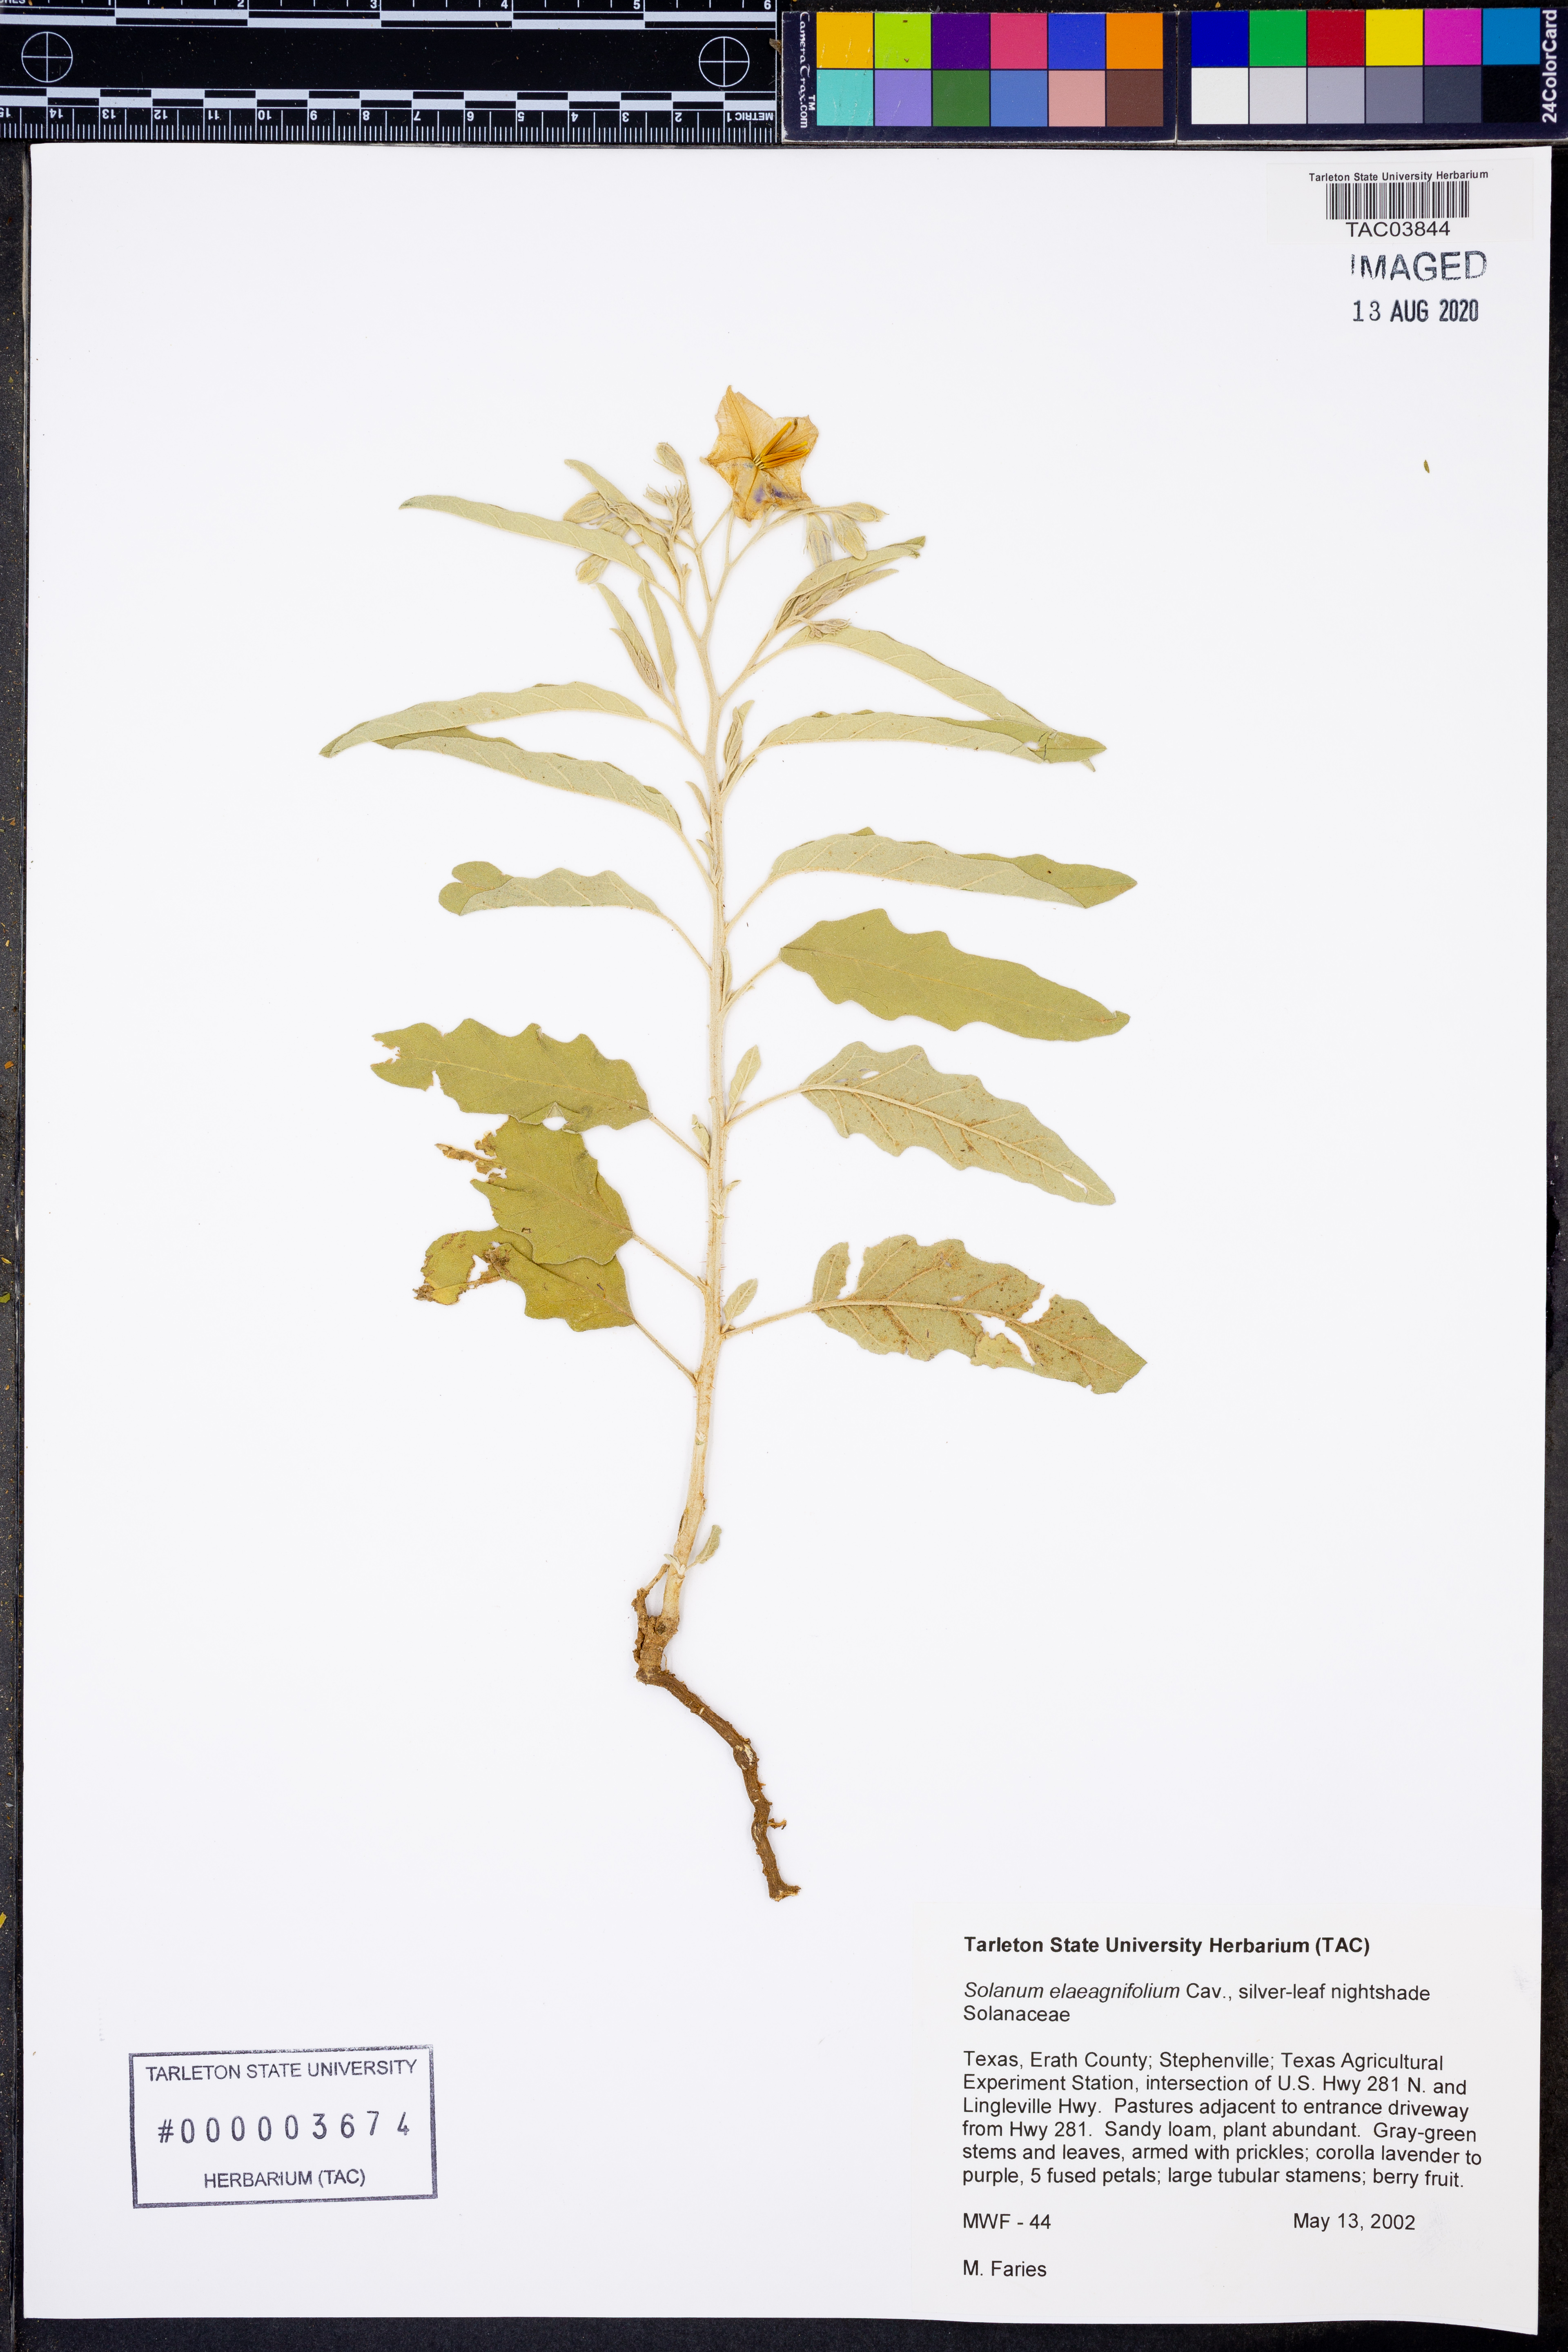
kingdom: Plantae
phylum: Tracheophyta
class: Magnoliopsida
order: Solanales
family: Solanaceae
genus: Solanum
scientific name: Solanum elaeagnifolium
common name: Silverleaf nightshade
